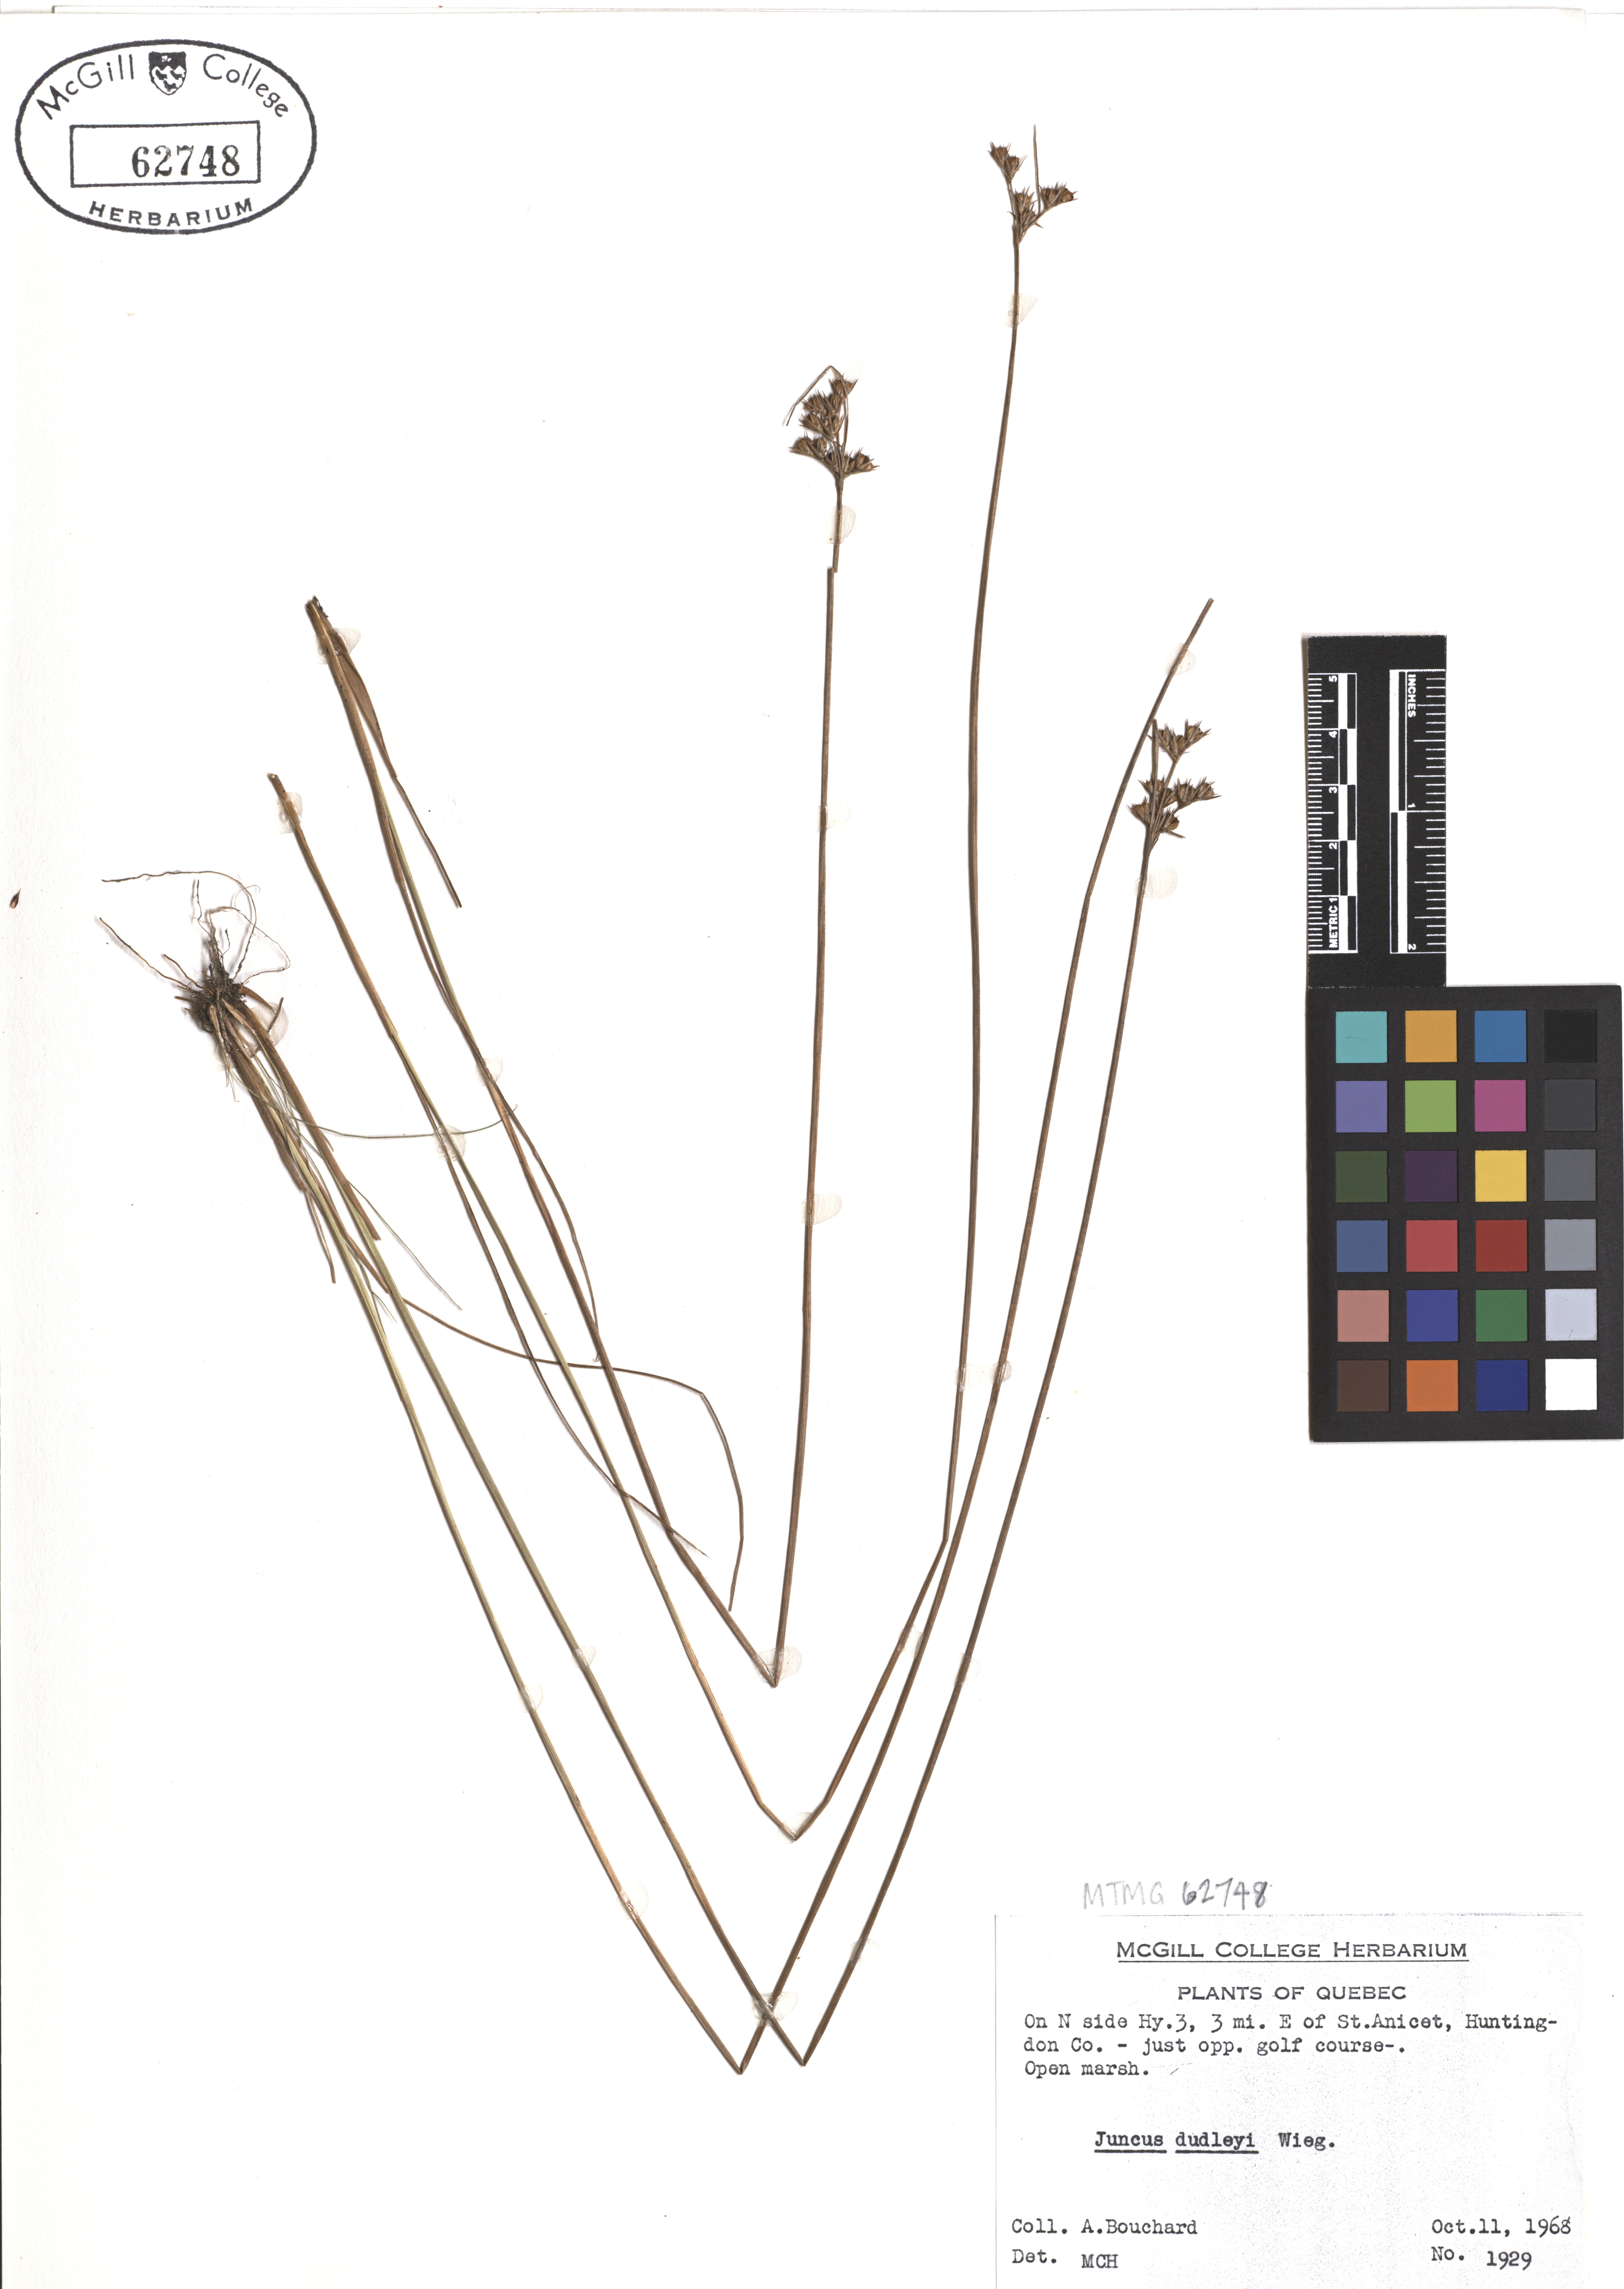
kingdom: Plantae
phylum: Tracheophyta
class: Liliopsida
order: Poales
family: Juncaceae
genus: Juncus
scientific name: Juncus dudleyi
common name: Dudley's rush
